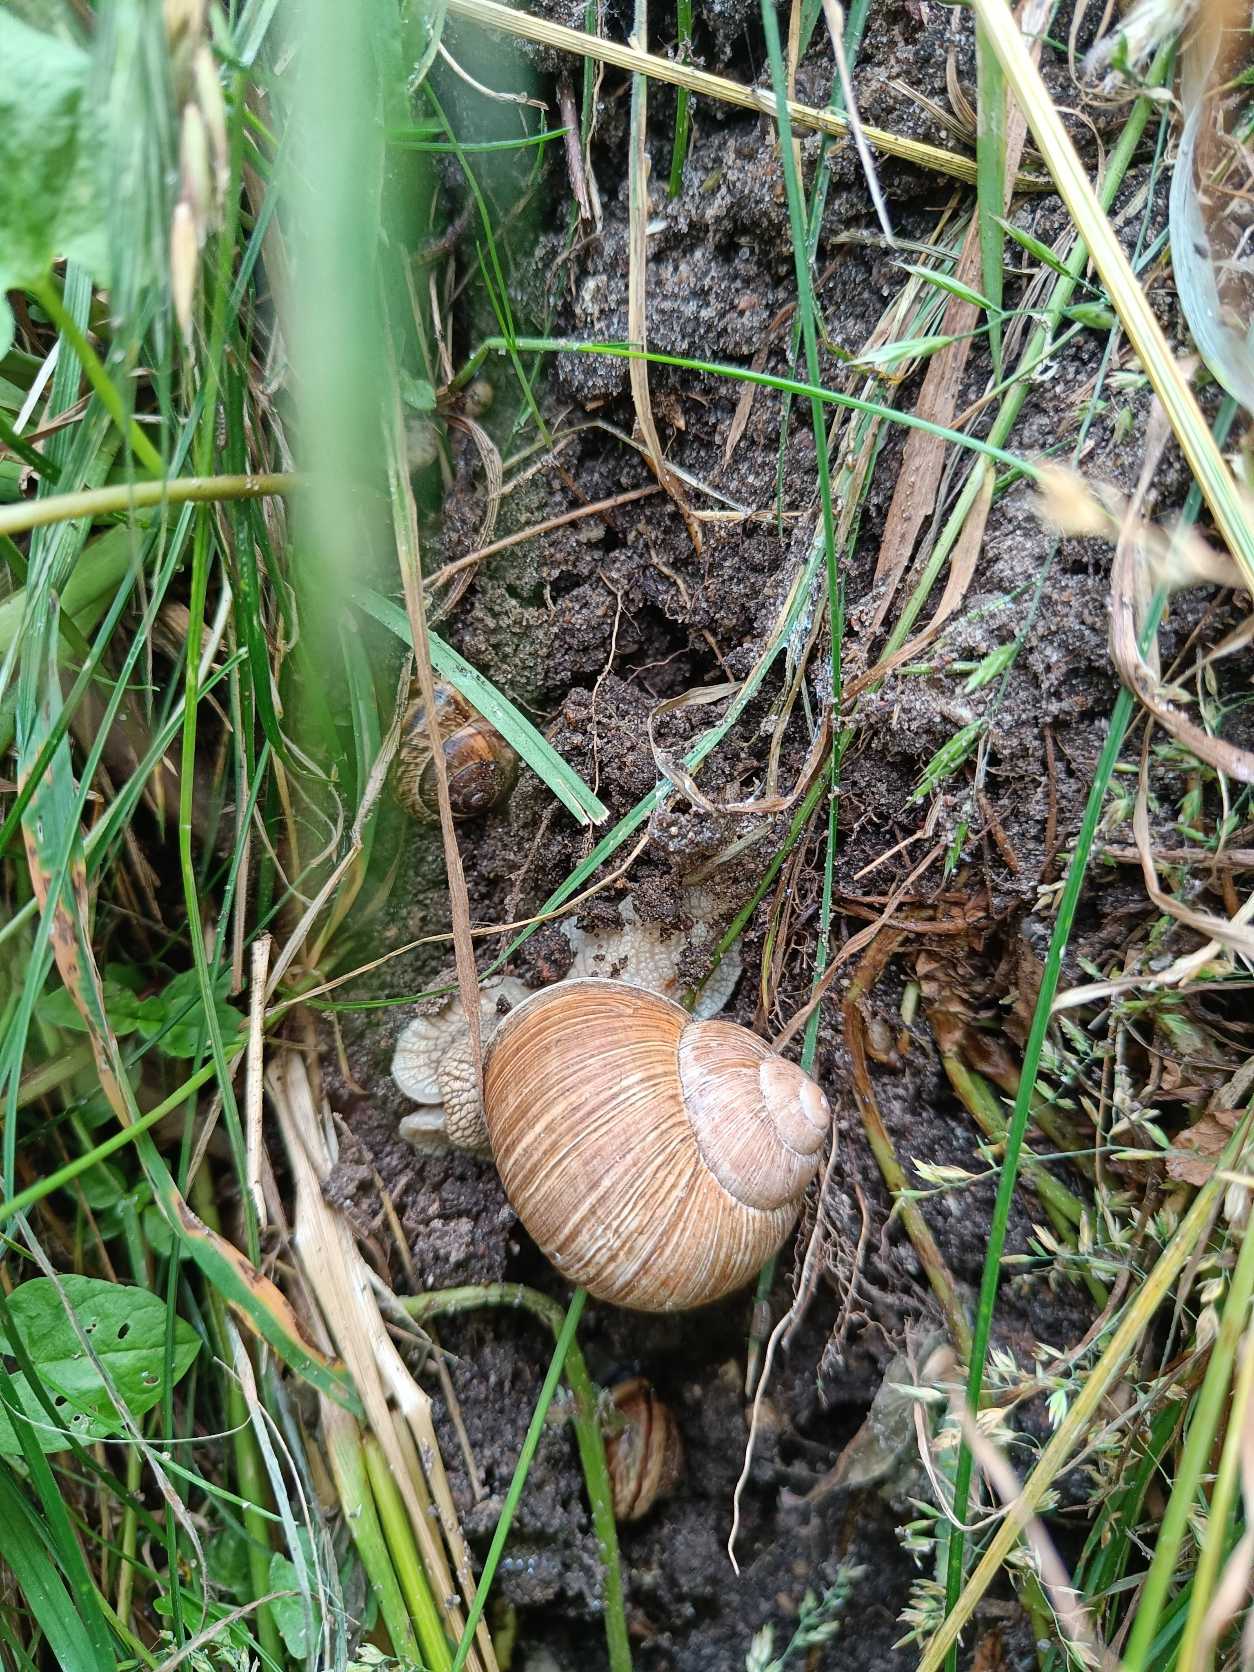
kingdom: Animalia
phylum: Mollusca
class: Gastropoda
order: Stylommatophora
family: Helicidae
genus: Helix
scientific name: Helix pomatia
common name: Vinbjergsnegl
